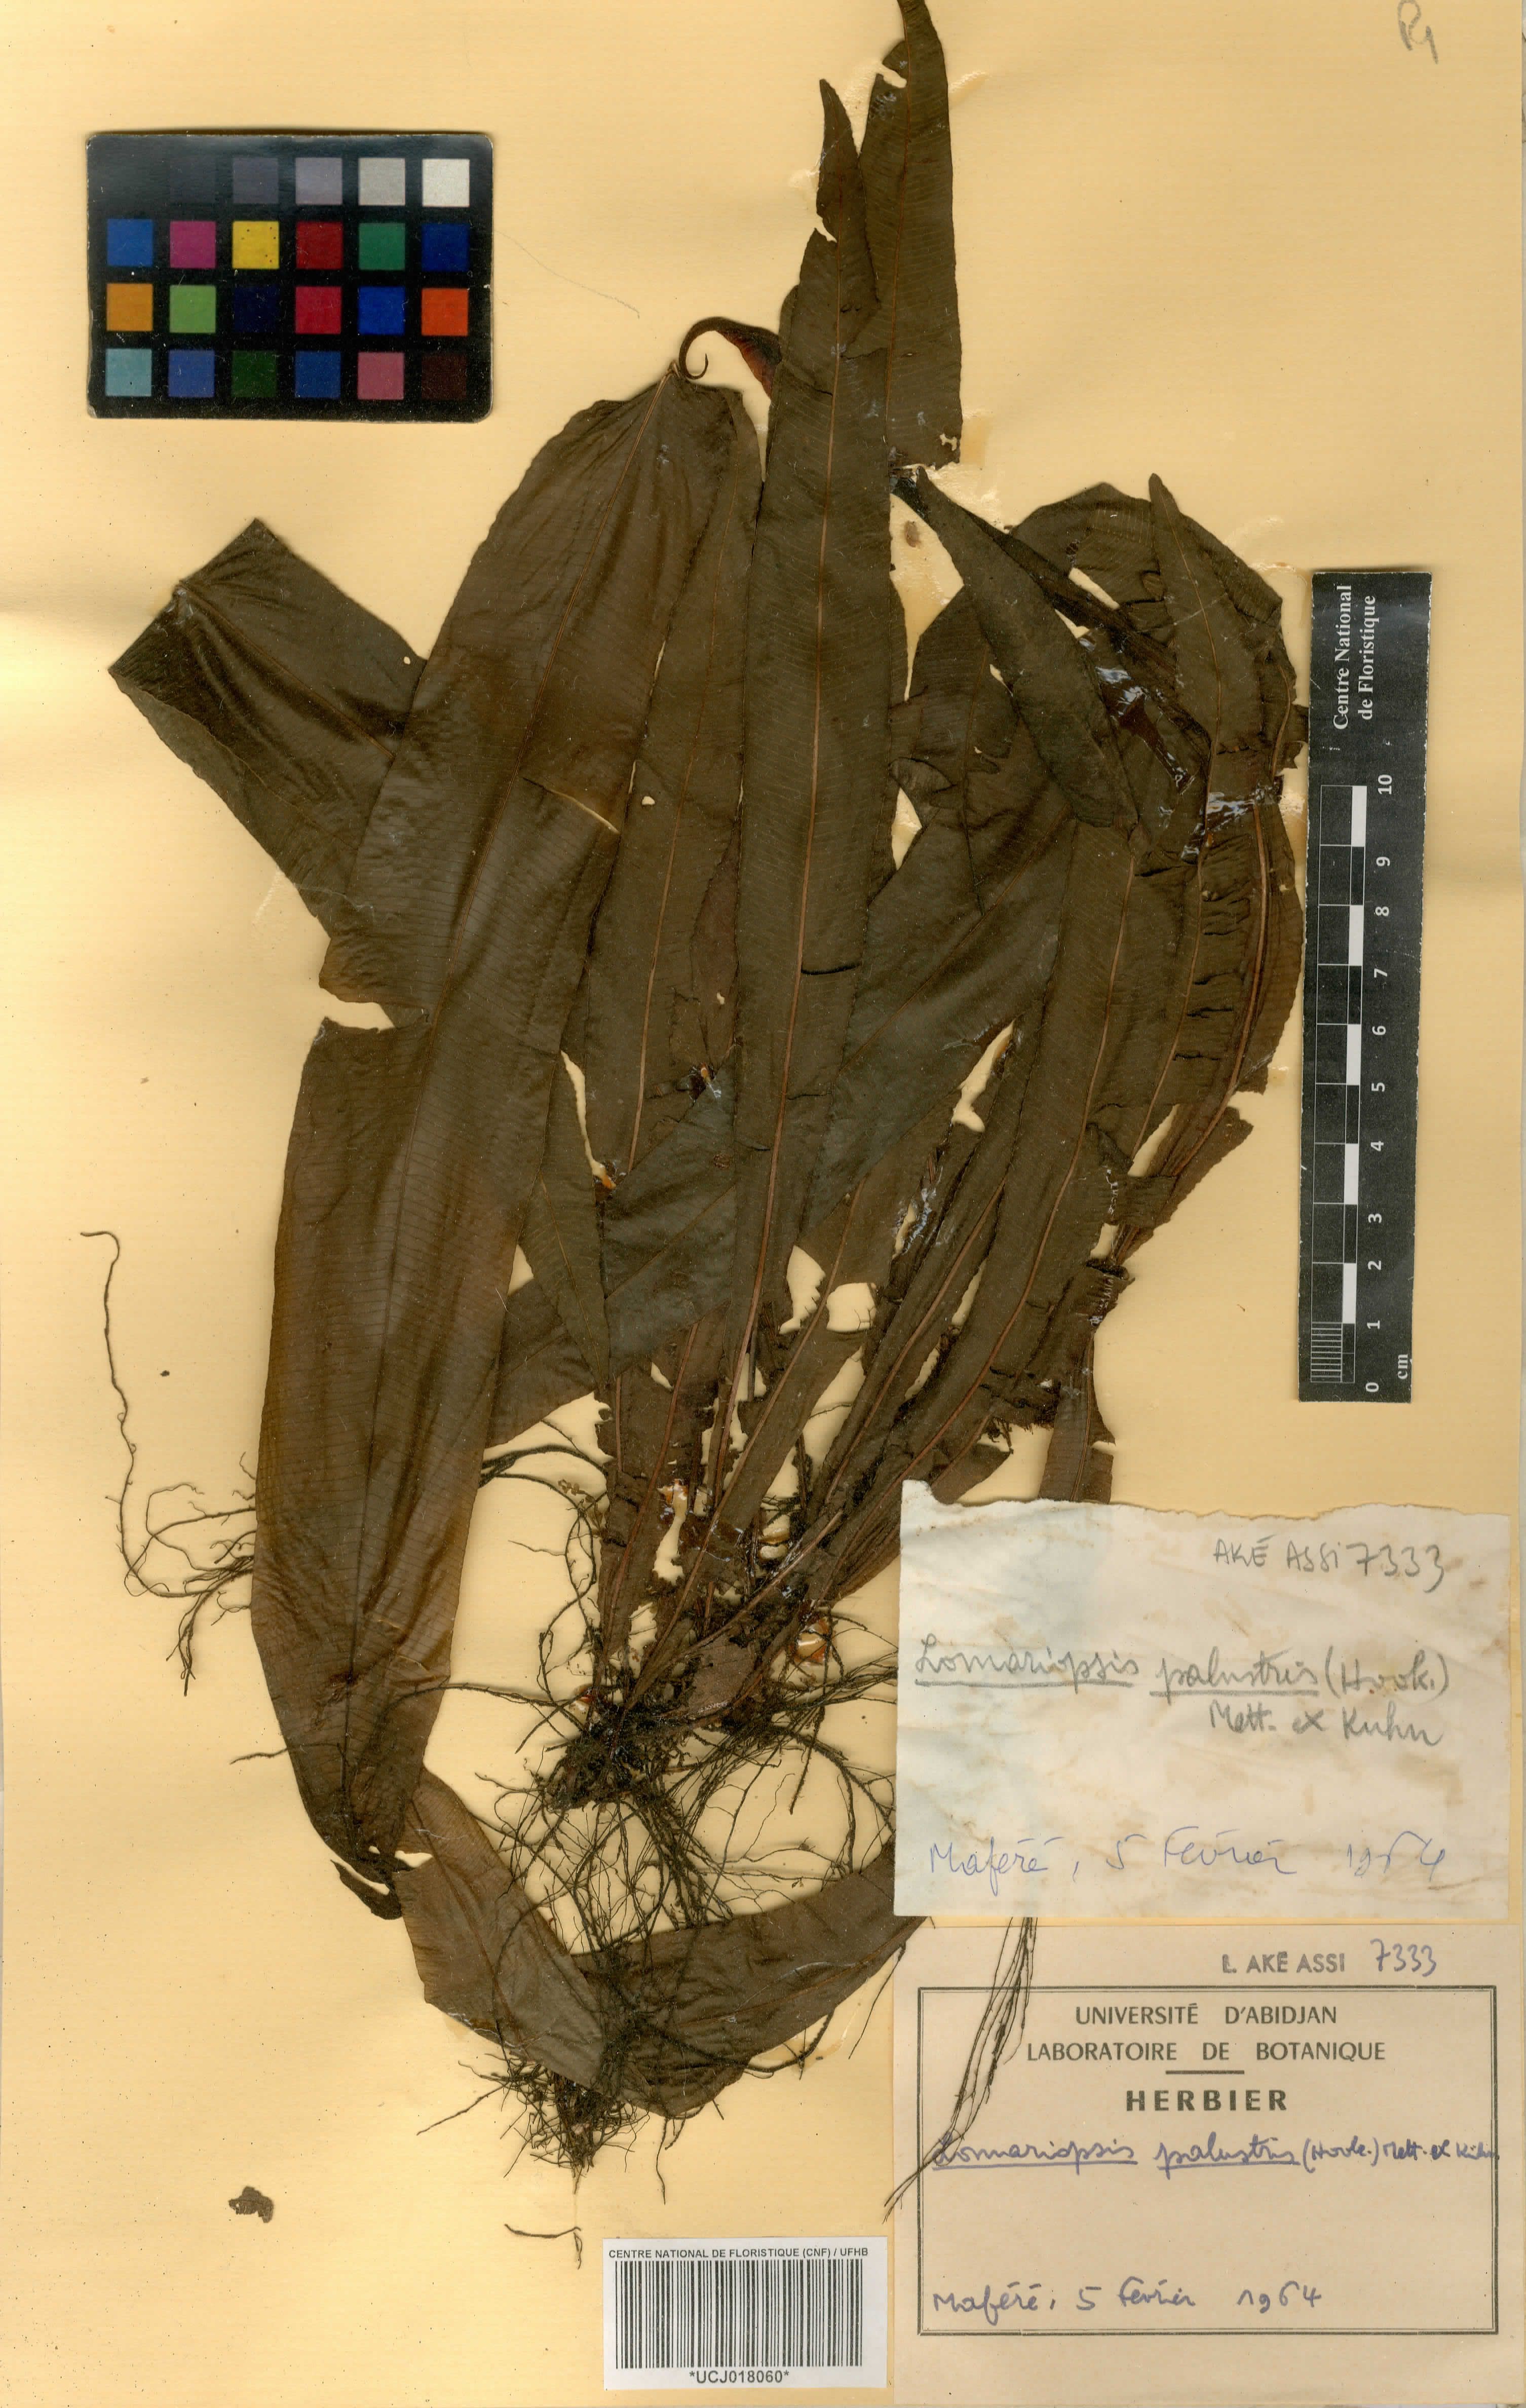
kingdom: Plantae
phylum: Tracheophyta
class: Polypodiopsida
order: Polypodiales
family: Blechnaceae
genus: Stenochlaena
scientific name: Stenochlaena palustris
